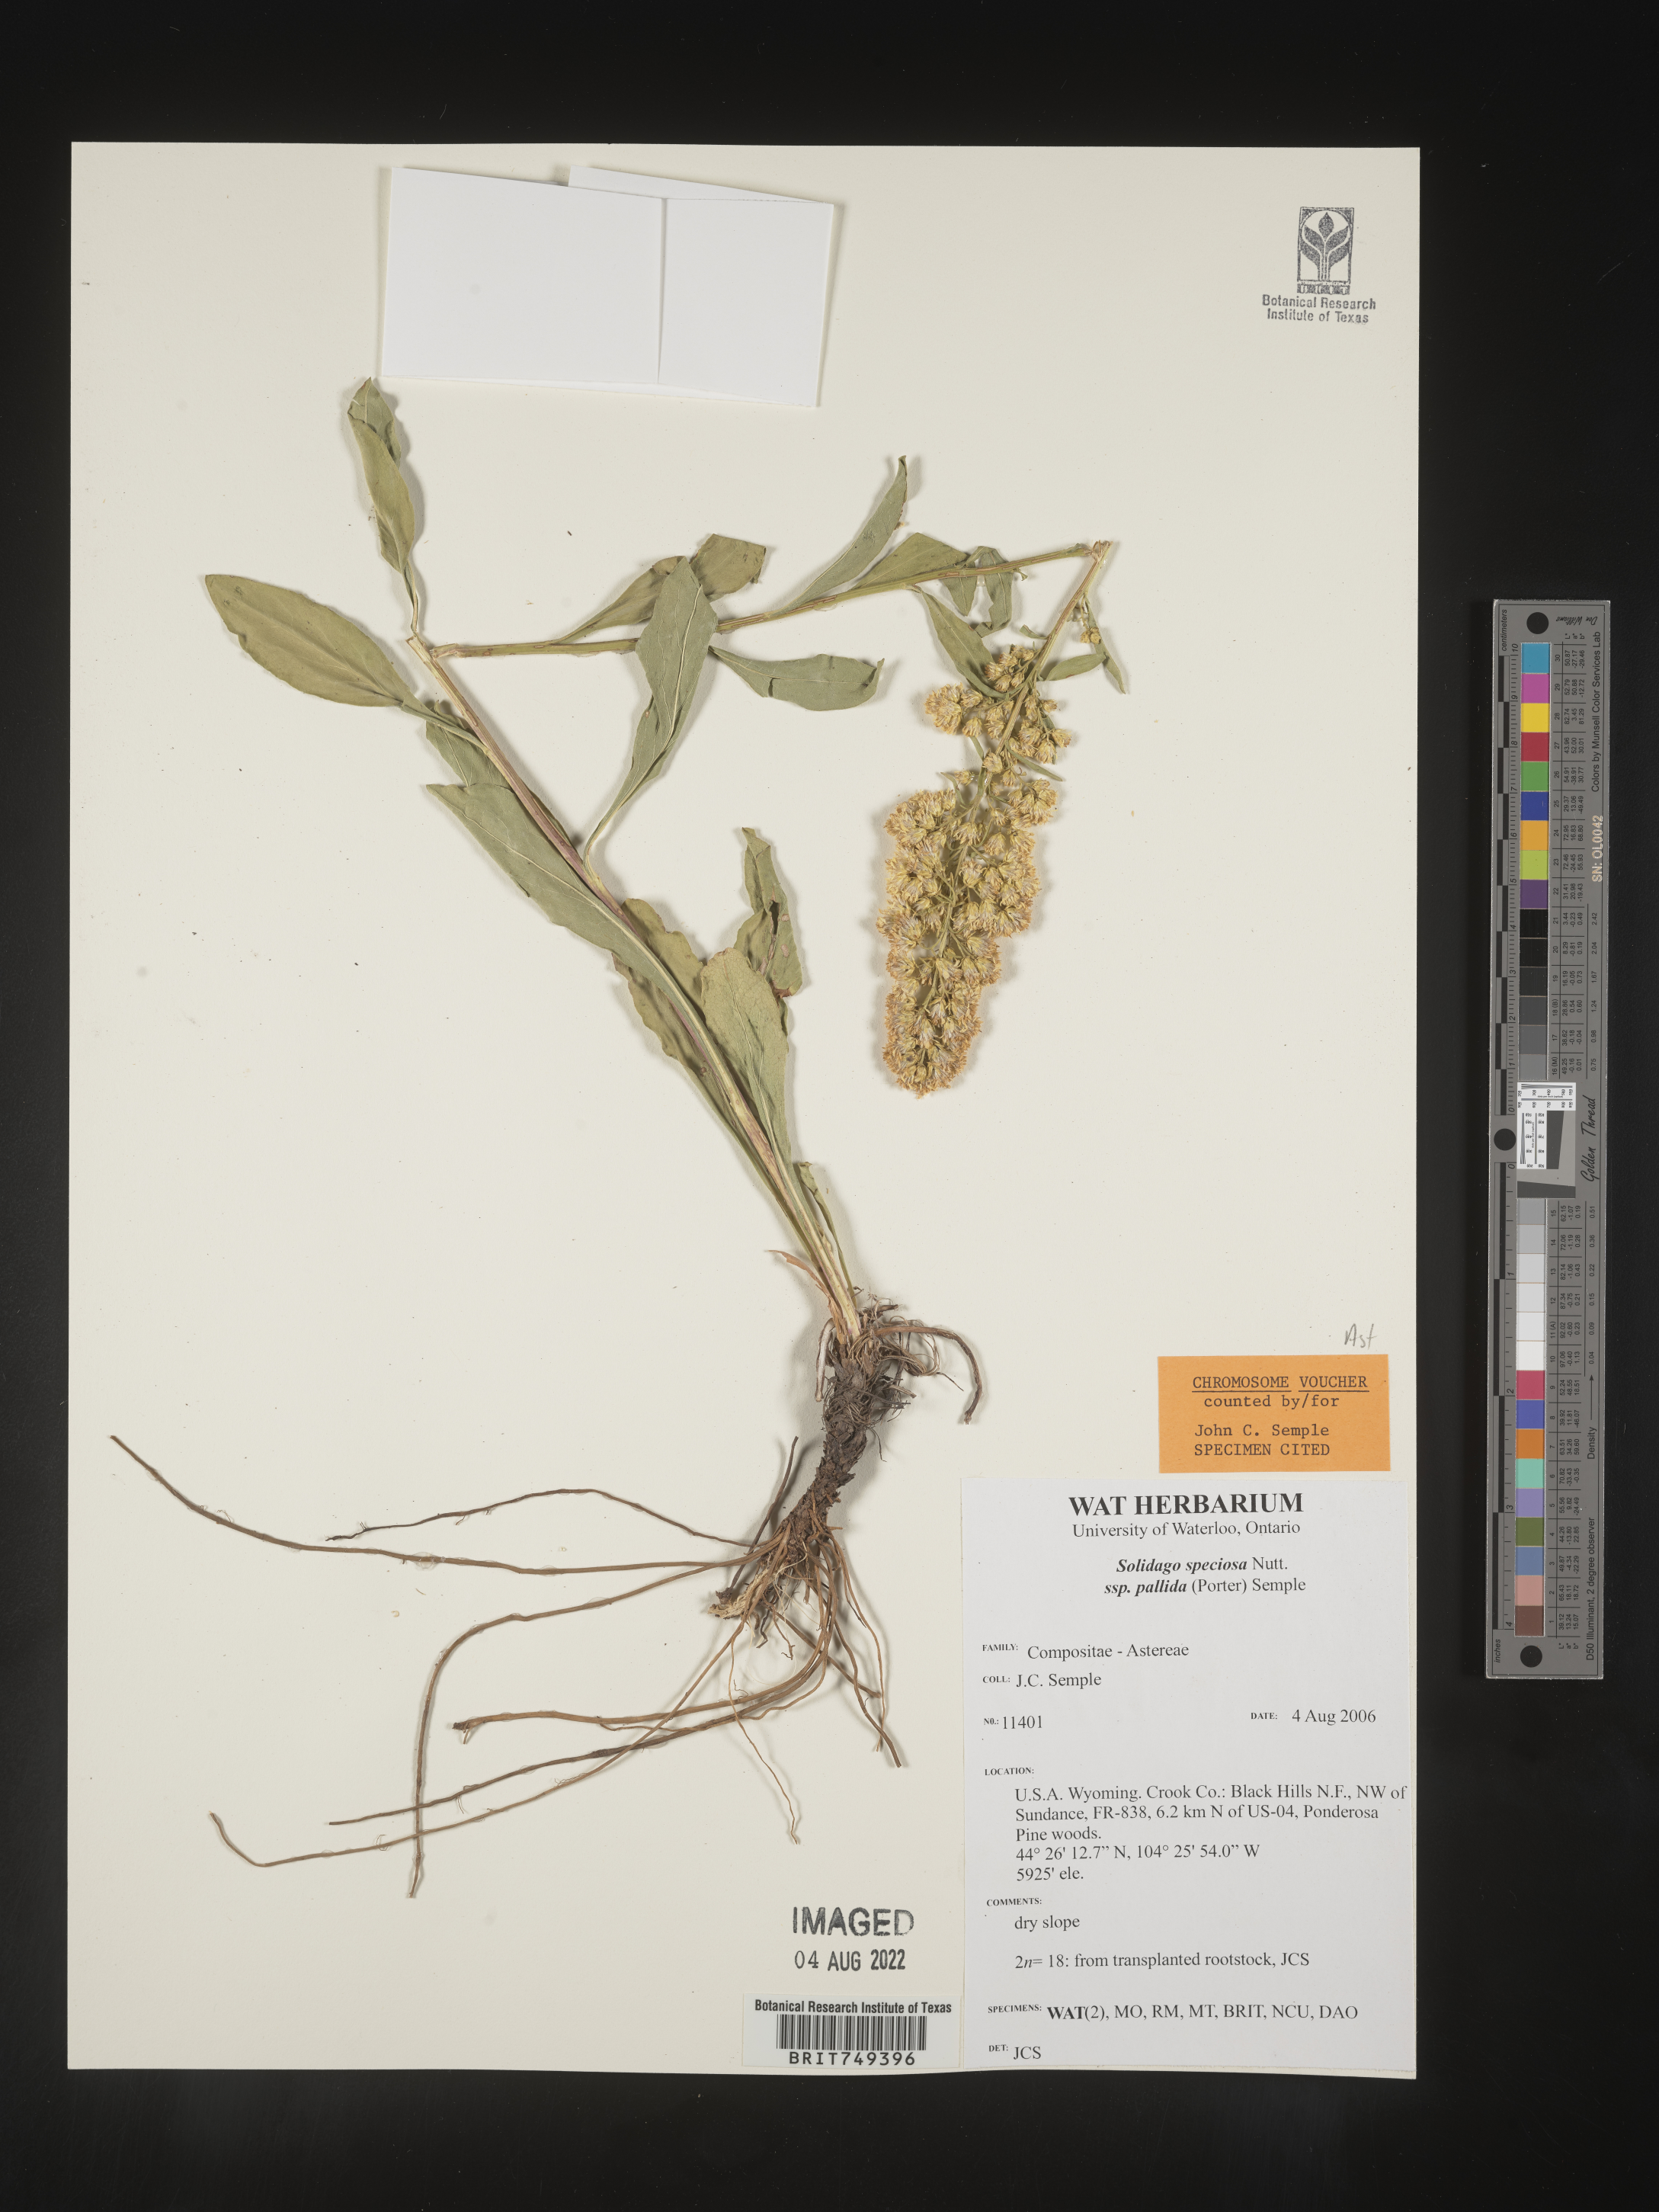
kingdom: Plantae
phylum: Tracheophyta
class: Magnoliopsida
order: Asterales
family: Asteraceae
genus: Solidago
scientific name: Solidago speciosa
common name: Showy goldenrod
